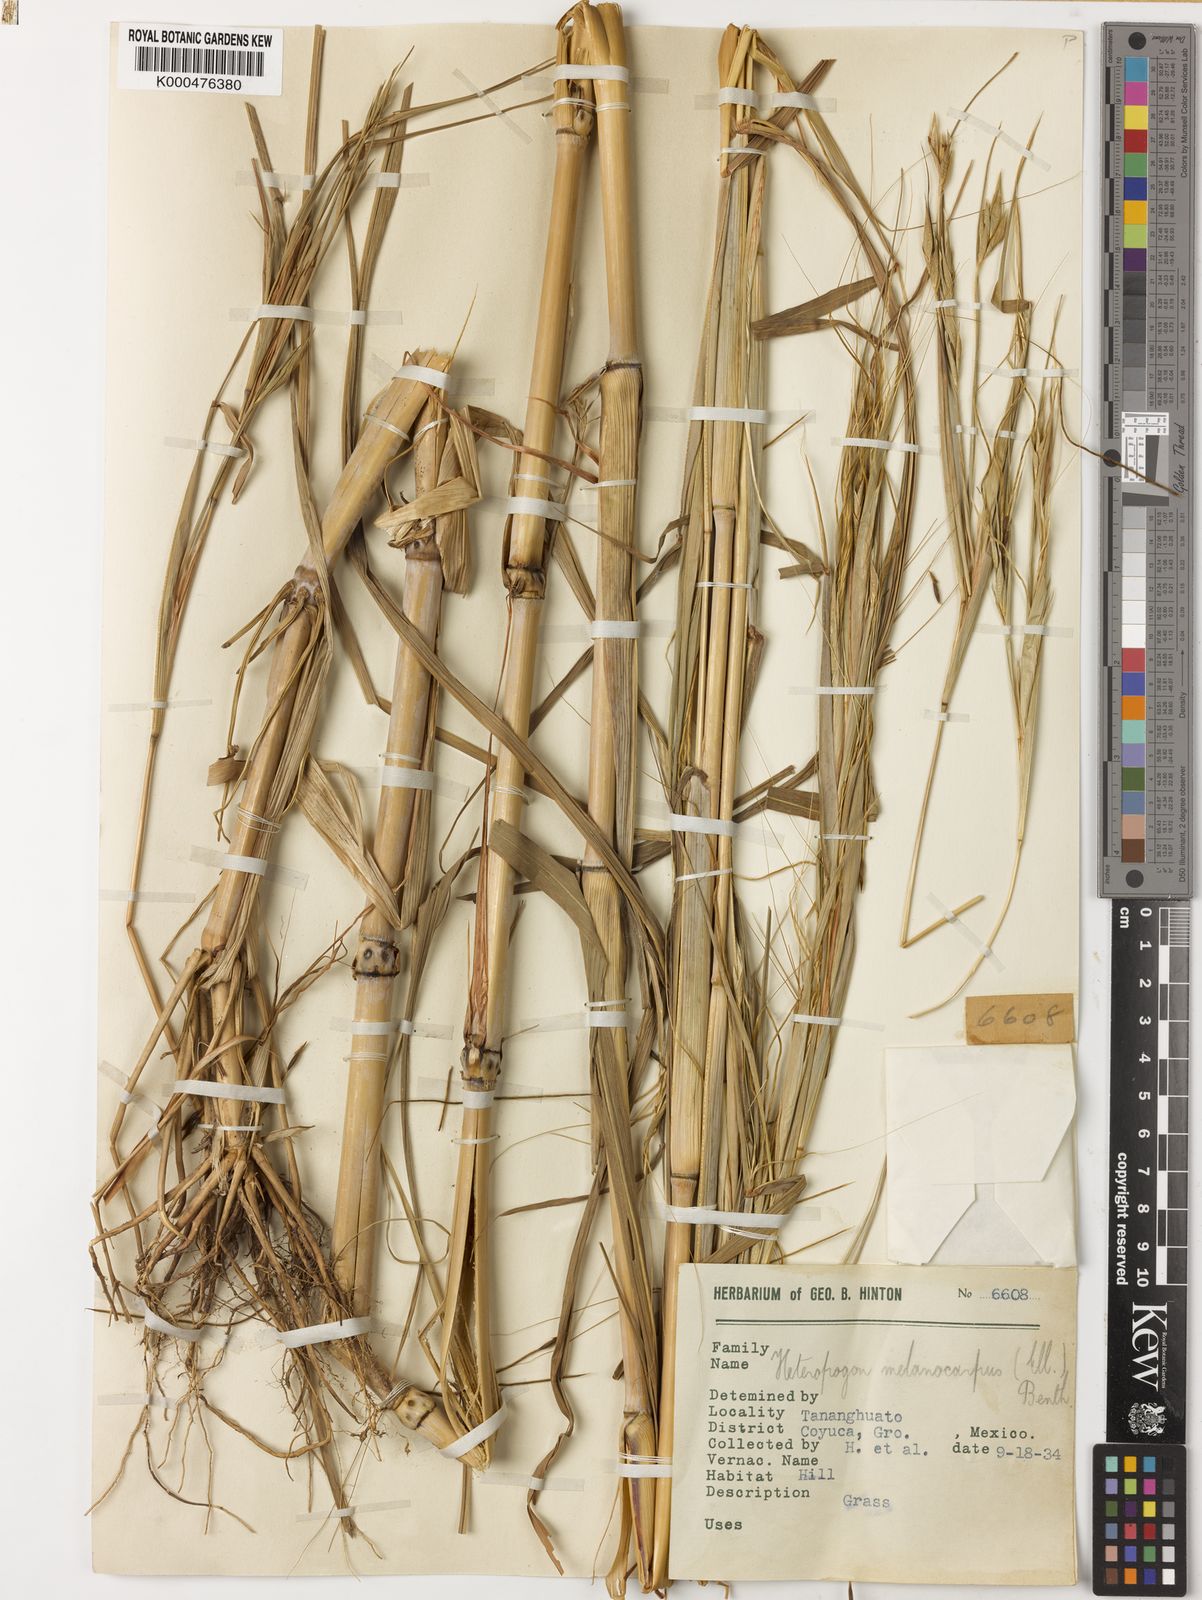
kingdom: Plantae
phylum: Tracheophyta
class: Liliopsida
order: Poales
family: Poaceae
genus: Heteropogon
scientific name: Heteropogon melanocarpus
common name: Sweet tanglehead
